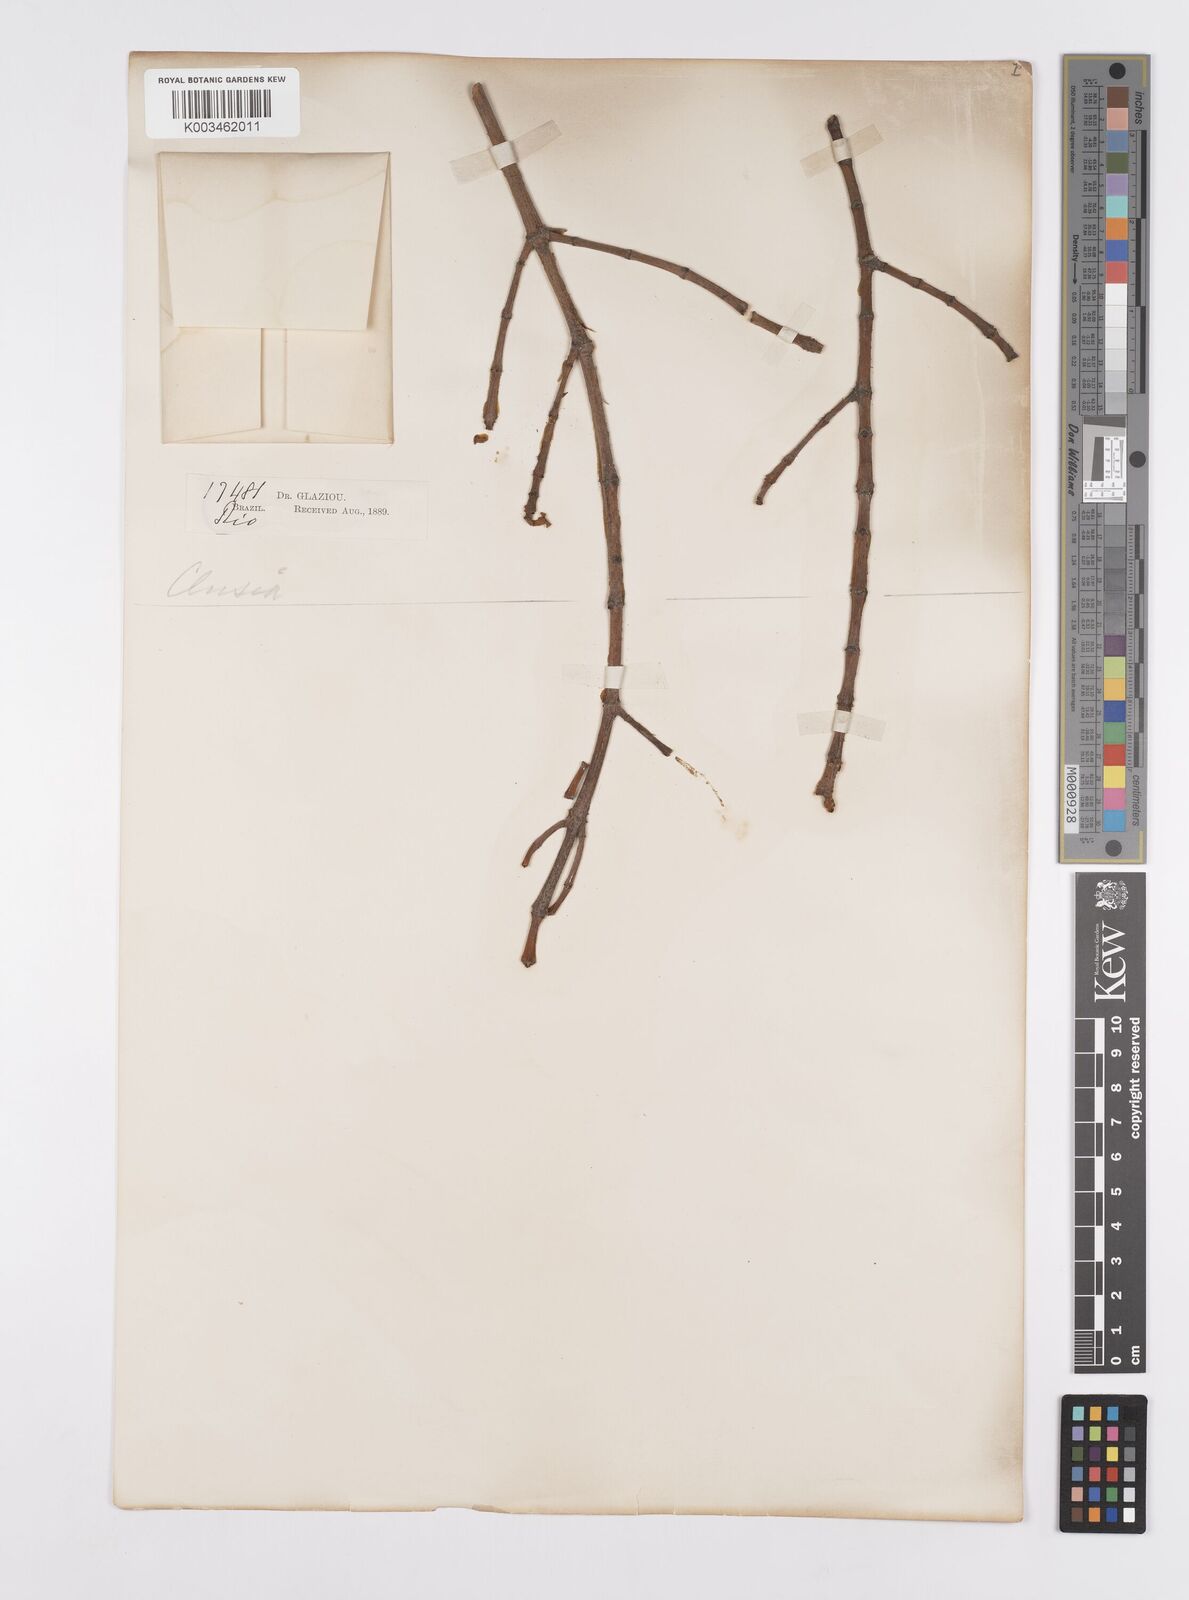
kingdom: Plantae
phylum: Tracheophyta
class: Magnoliopsida
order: Malpighiales
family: Clusiaceae
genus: Clusia
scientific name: Clusia panapanari
